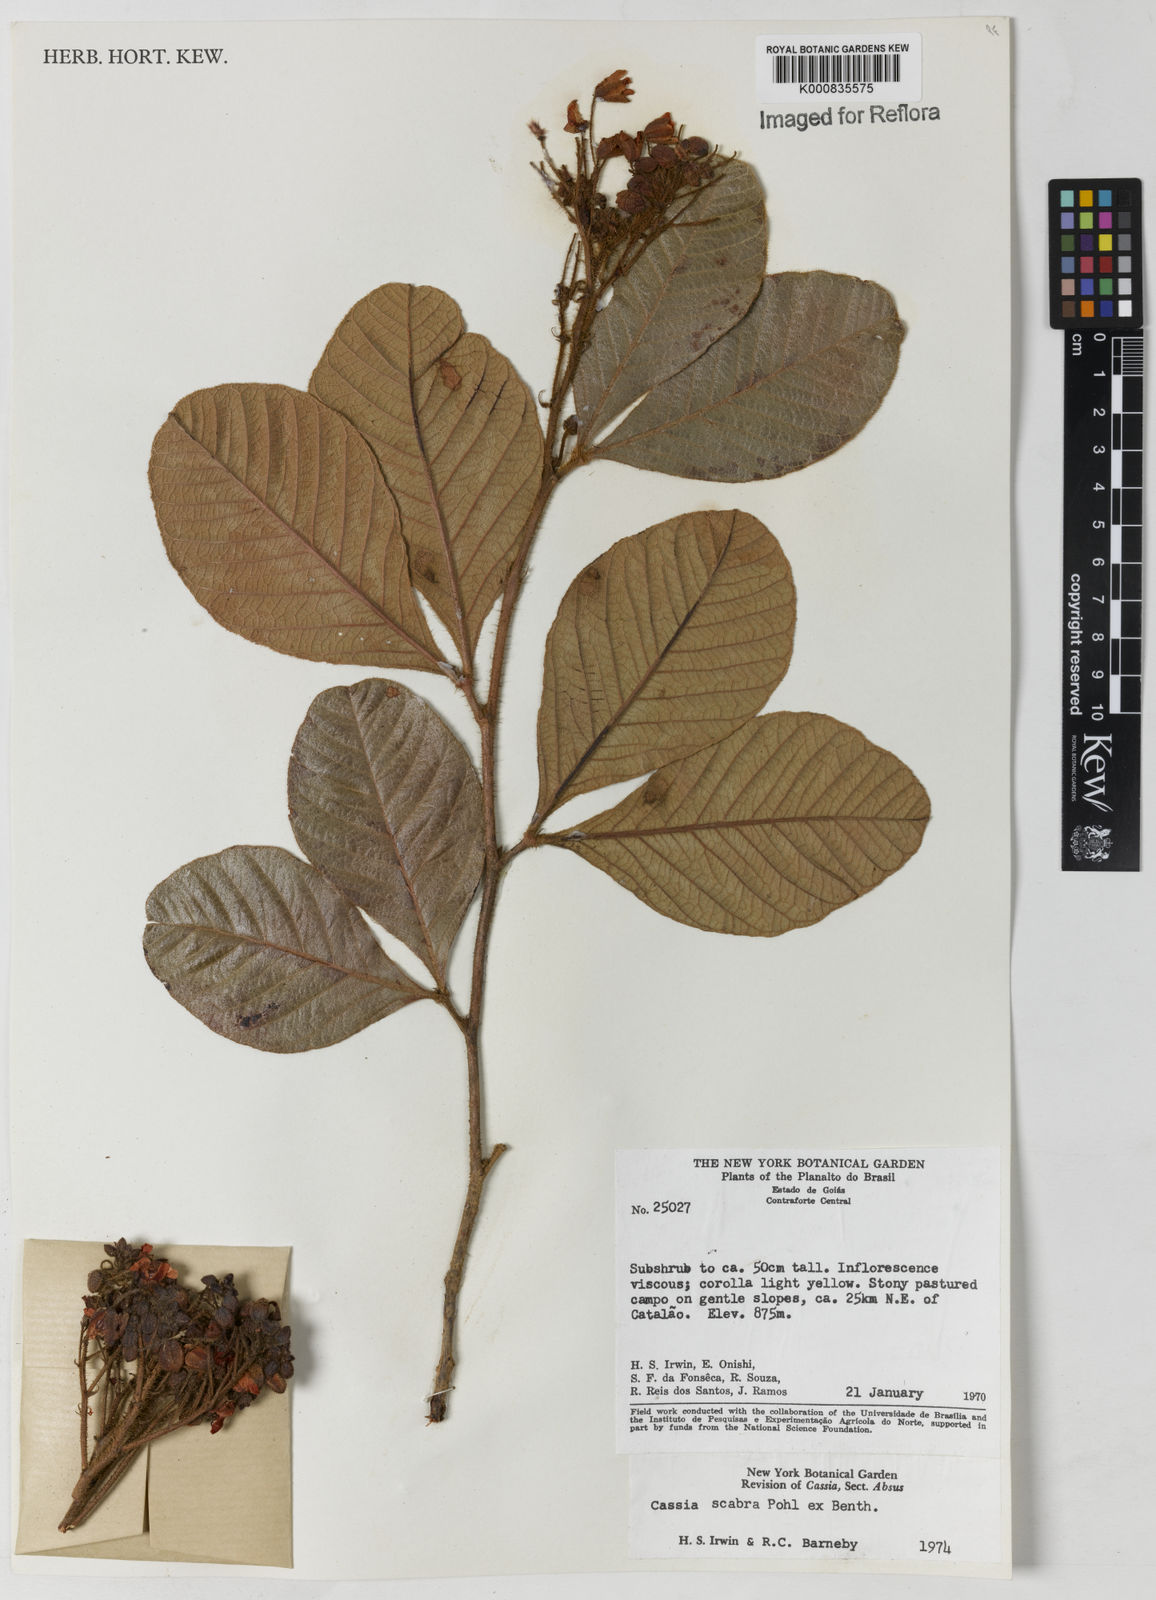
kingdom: Plantae
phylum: Tracheophyta
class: Magnoliopsida
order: Fabales
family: Fabaceae
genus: Chamaecrista
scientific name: Chamaecrista scabra
